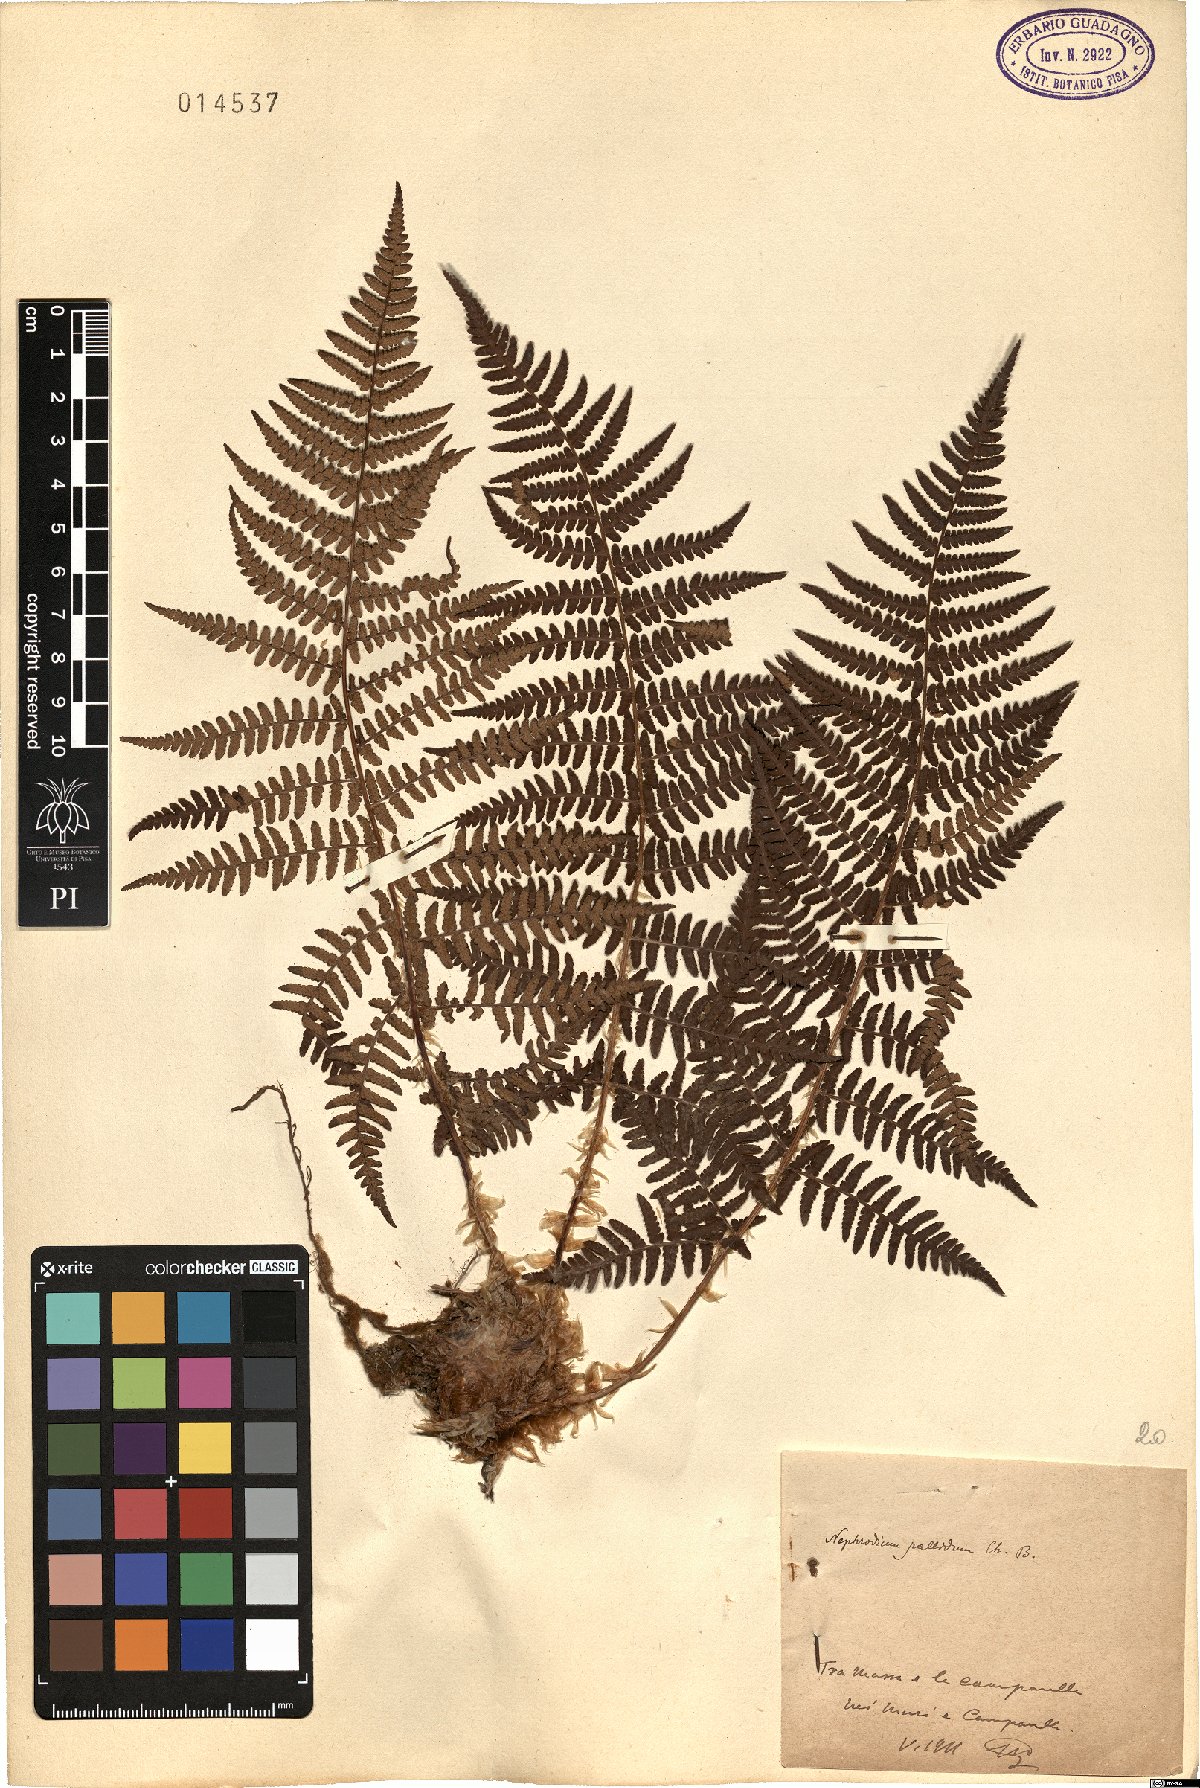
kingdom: Plantae
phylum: Tracheophyta
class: Polypodiopsida
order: Polypodiales
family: Dryopteridaceae
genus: Dryopteris
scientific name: Dryopteris pallida
